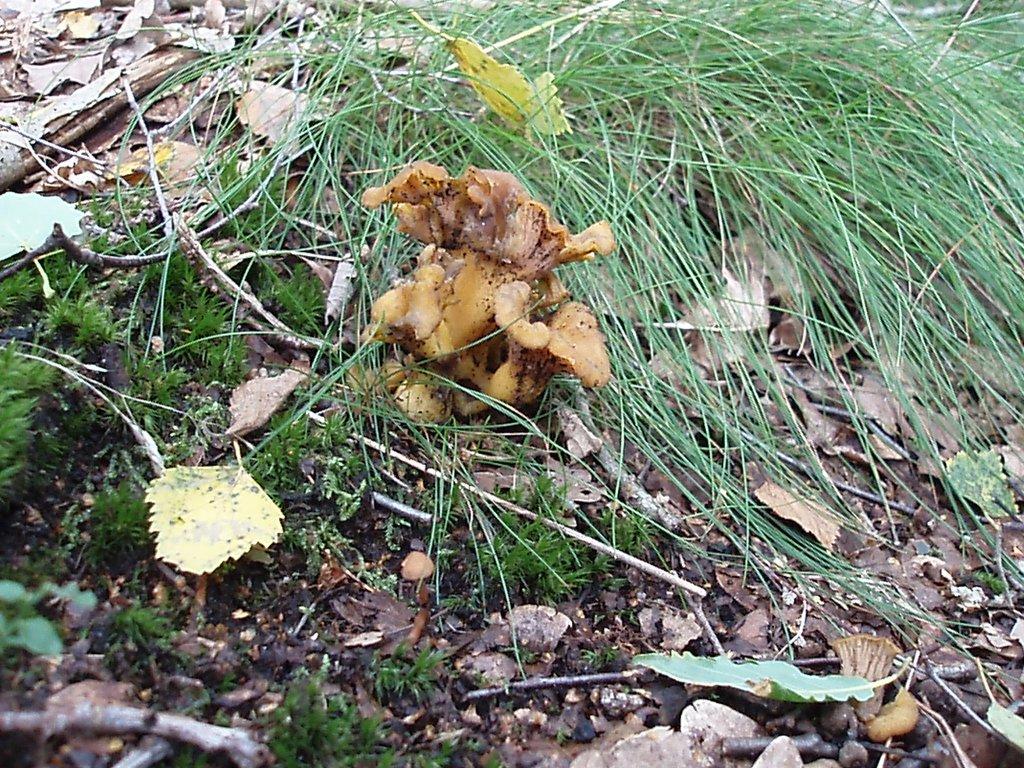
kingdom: Fungi
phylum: Basidiomycota
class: Agaricomycetes
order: Cantharellales
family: Hydnaceae
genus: Cantharellus
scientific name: Cantharellus melanoxeros
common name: sværtende kantarel
